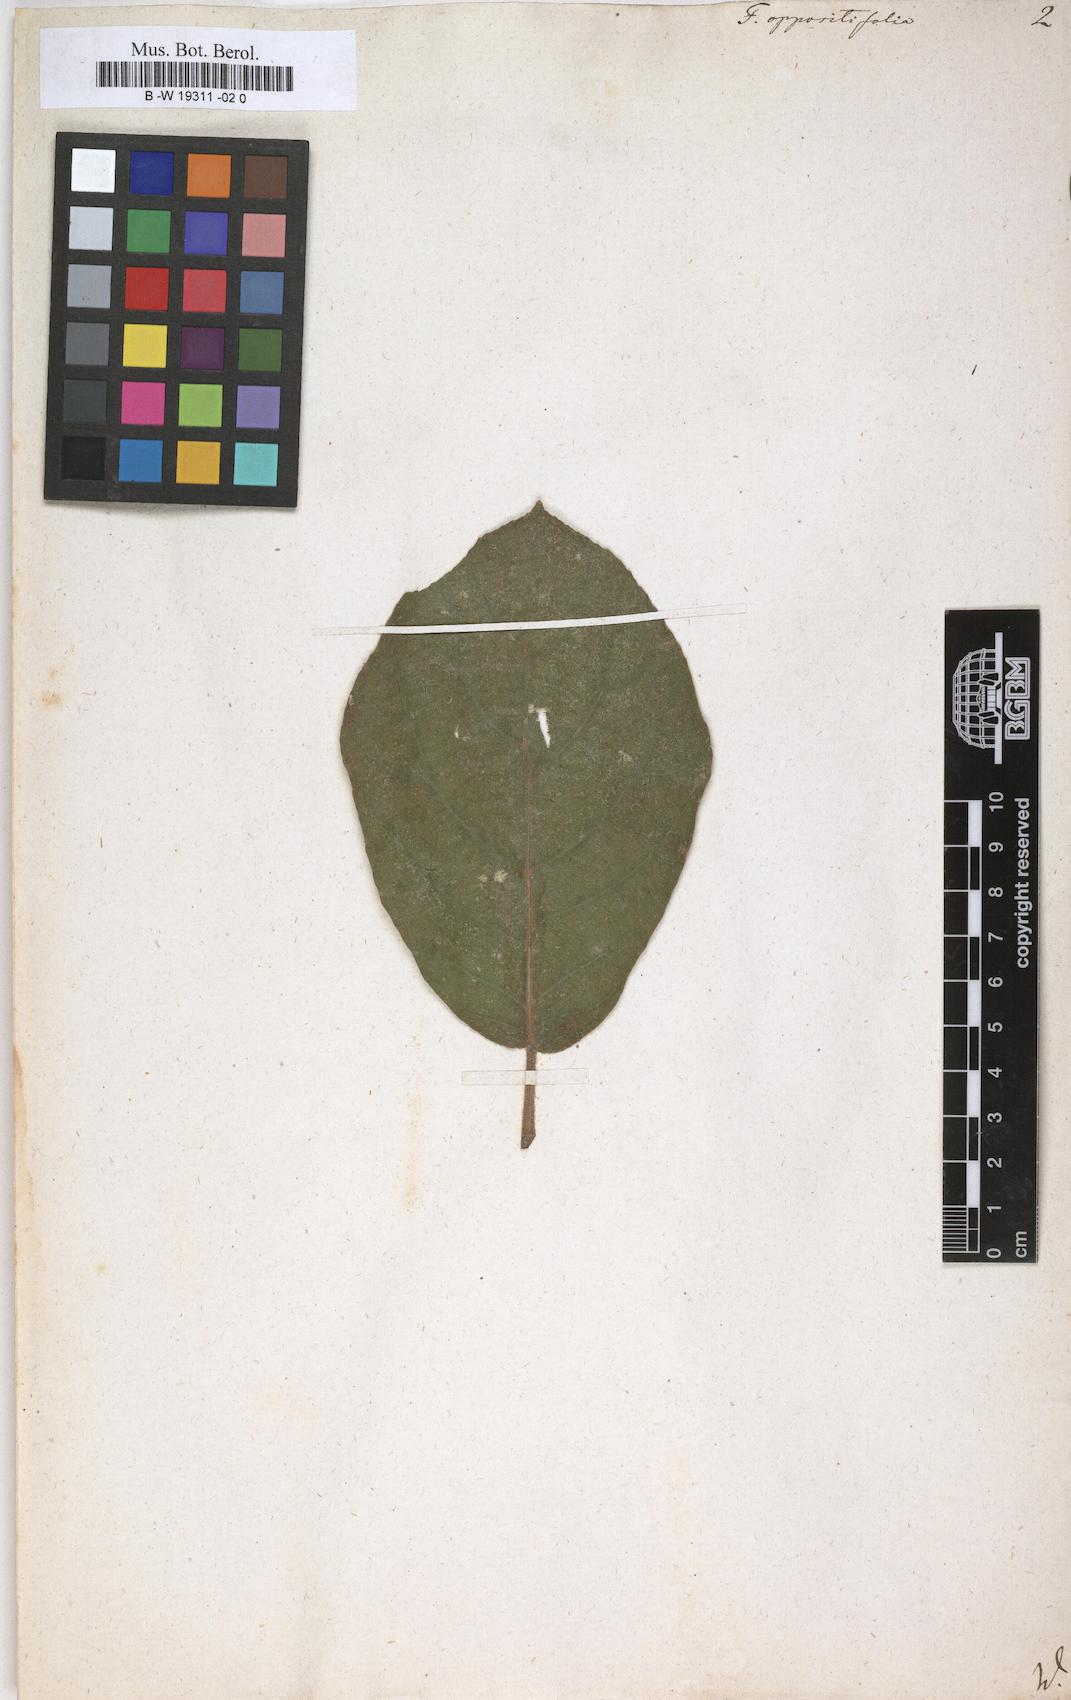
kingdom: Plantae
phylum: Tracheophyta
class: Magnoliopsida
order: Rosales
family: Moraceae
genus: Ficus
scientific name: Ficus hispida
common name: Hairy fig
